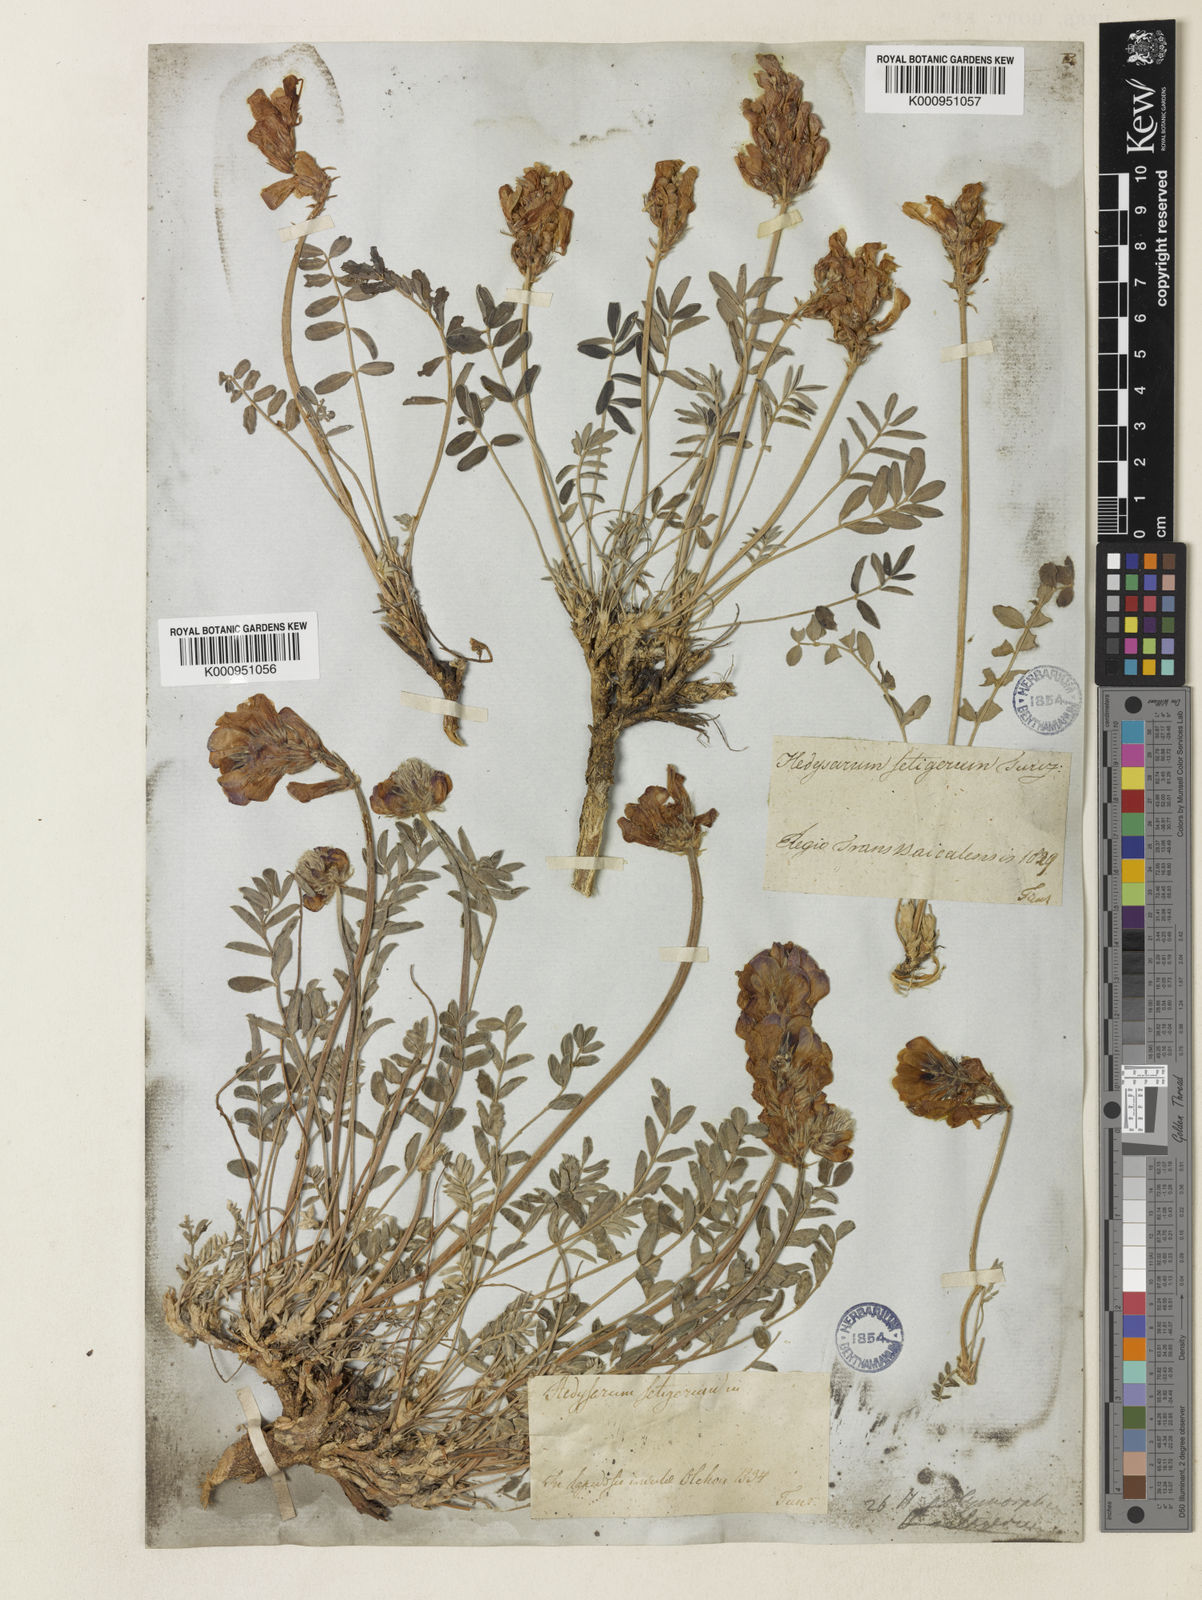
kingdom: Plantae
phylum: Tracheophyta
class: Magnoliopsida
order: Fabales
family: Fabaceae
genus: Hedysarum
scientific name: Hedysarum gmelinii
